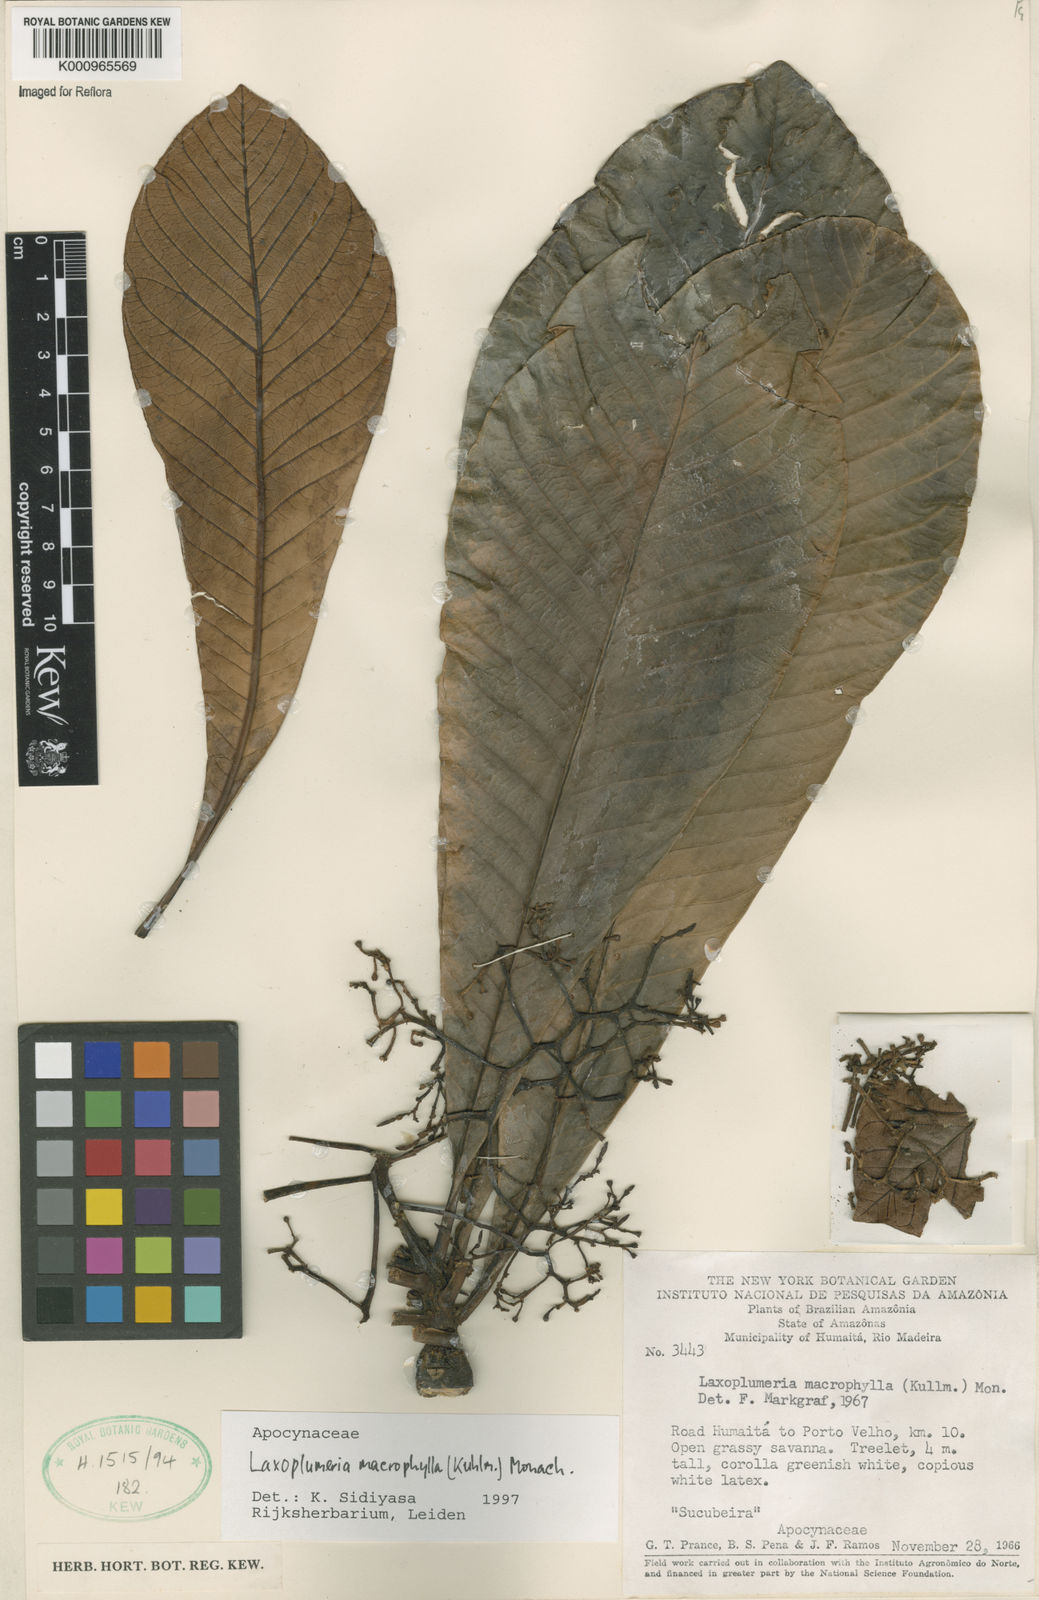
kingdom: Plantae
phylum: Tracheophyta
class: Magnoliopsida
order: Gentianales
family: Apocynaceae
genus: Laxoplumeria
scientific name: Laxoplumeria macrophylla
